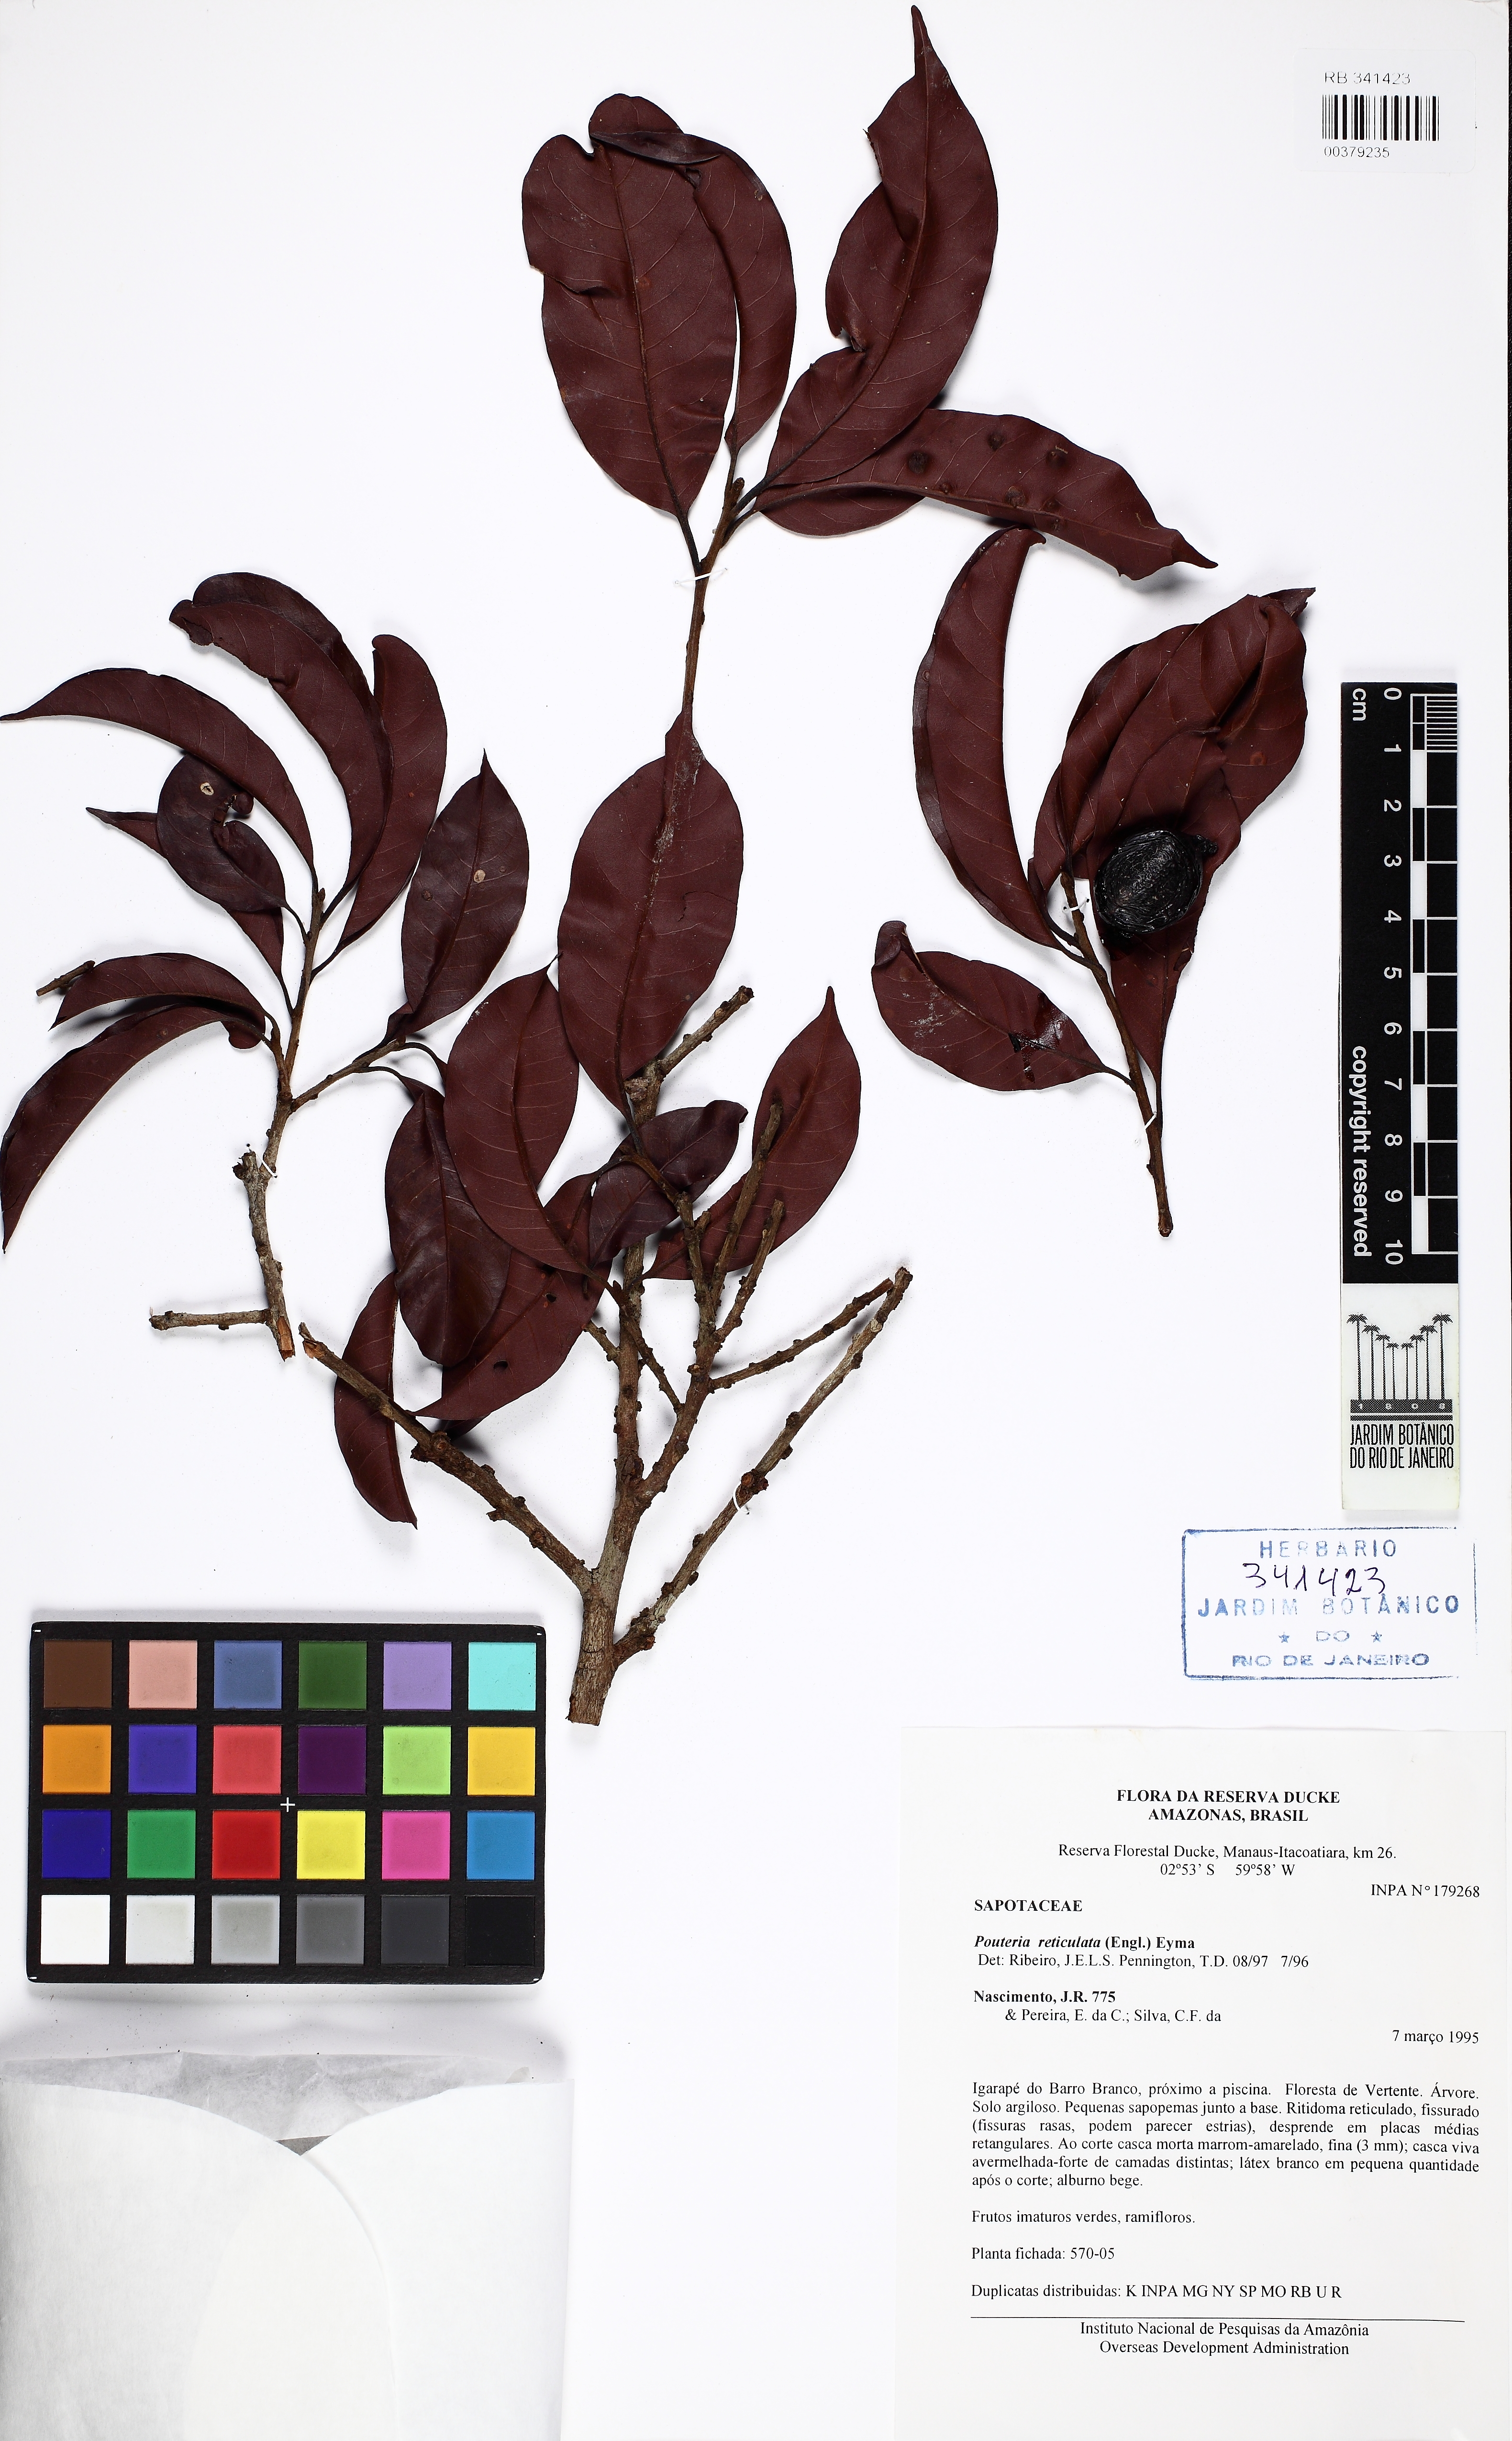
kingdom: Plantae
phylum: Tracheophyta
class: Magnoliopsida
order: Ericales
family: Sapotaceae
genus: Pouteria
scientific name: Pouteria reticulata
